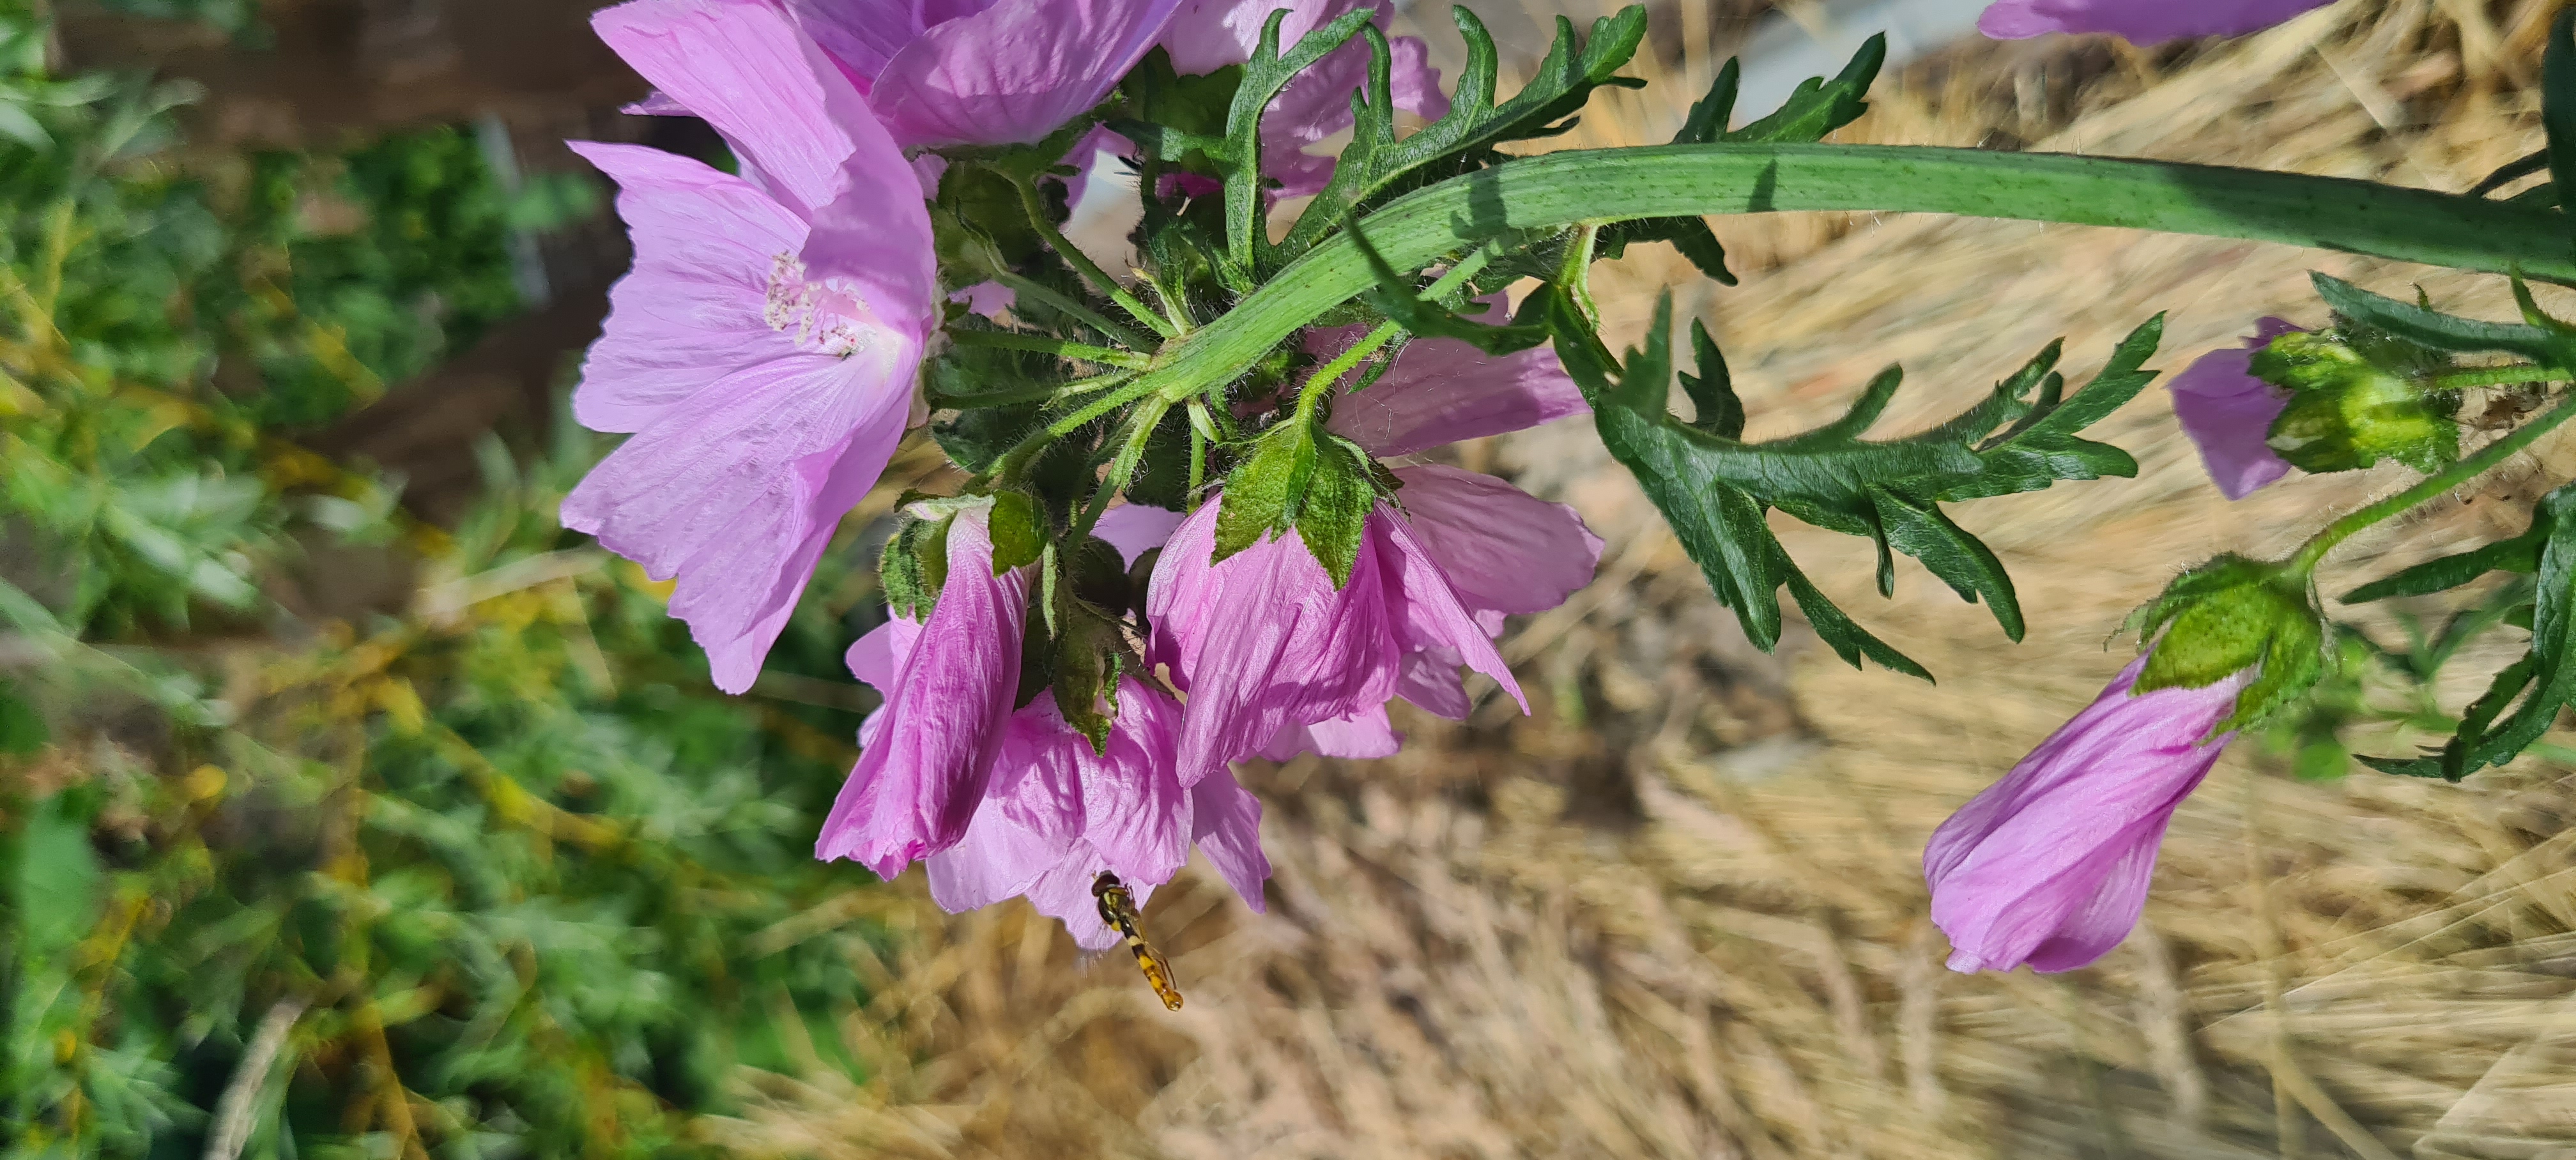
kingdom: Plantae
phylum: Tracheophyta
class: Magnoliopsida
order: Malvales
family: Malvaceae
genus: Malva
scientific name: Malva moschata
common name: Moskus-katost
